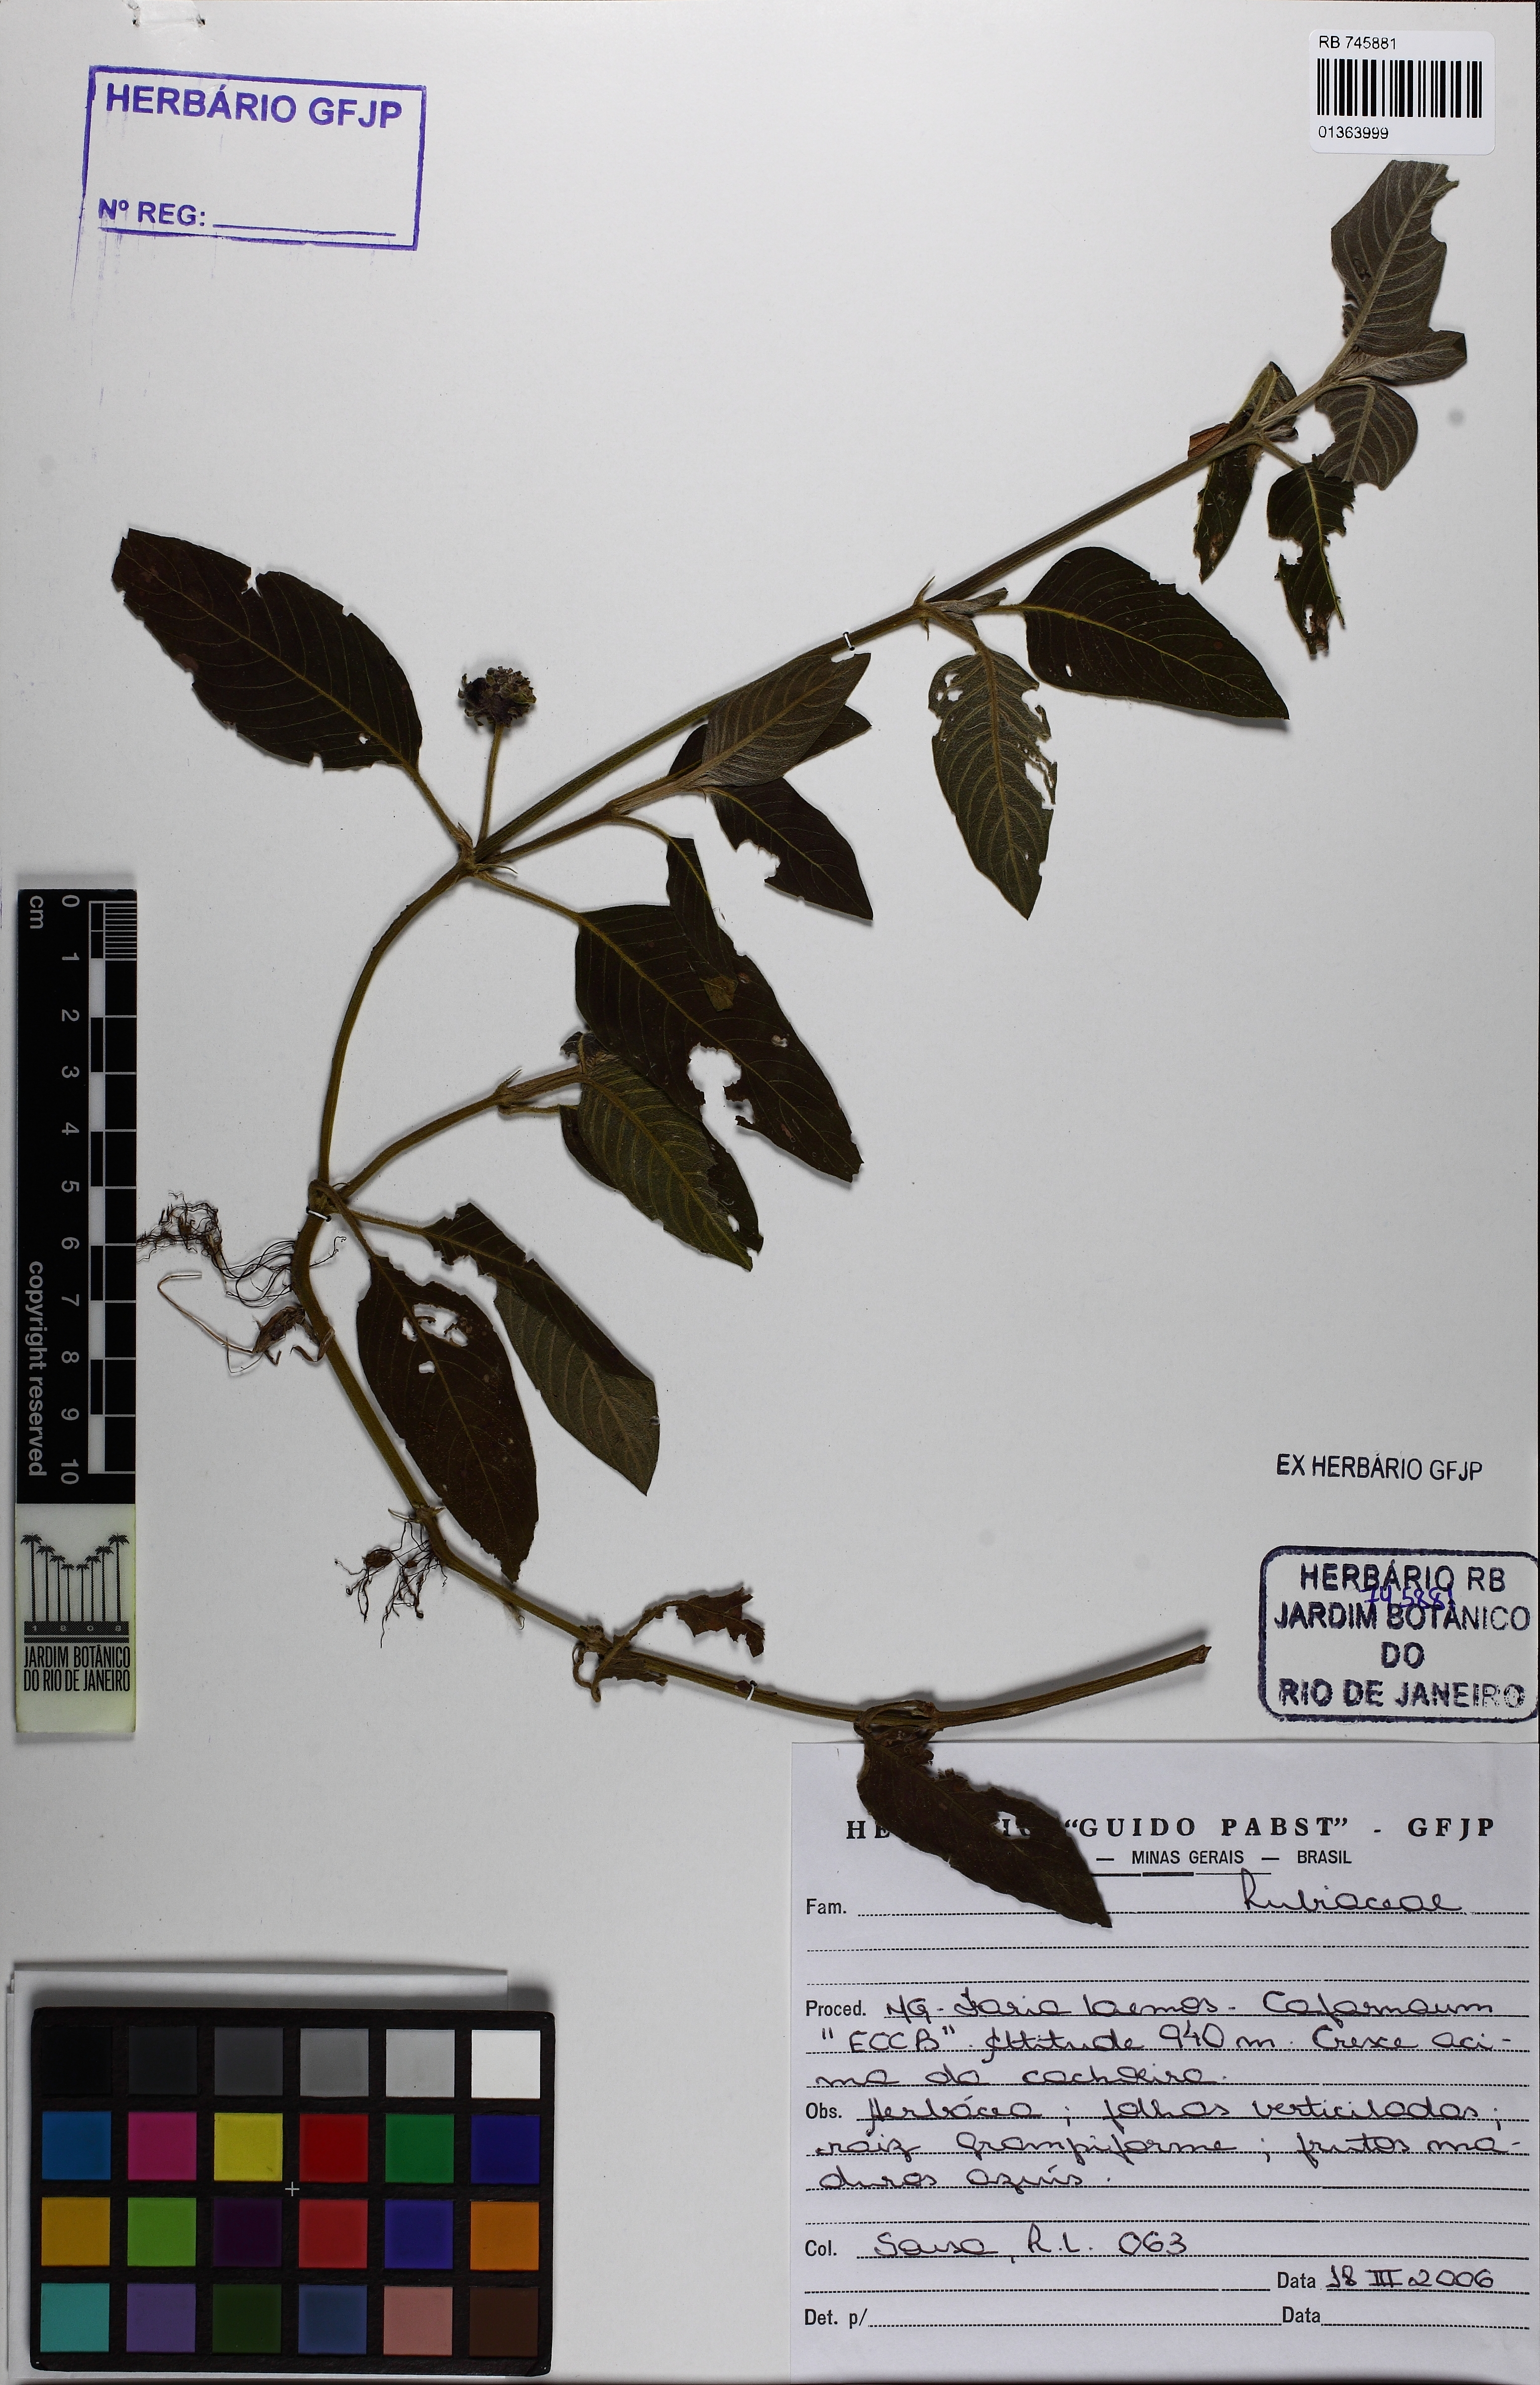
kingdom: Plantae
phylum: Tracheophyta
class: Magnoliopsida
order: Gentianales
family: Rubiaceae
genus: Coccocypselum
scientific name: Coccocypselum
